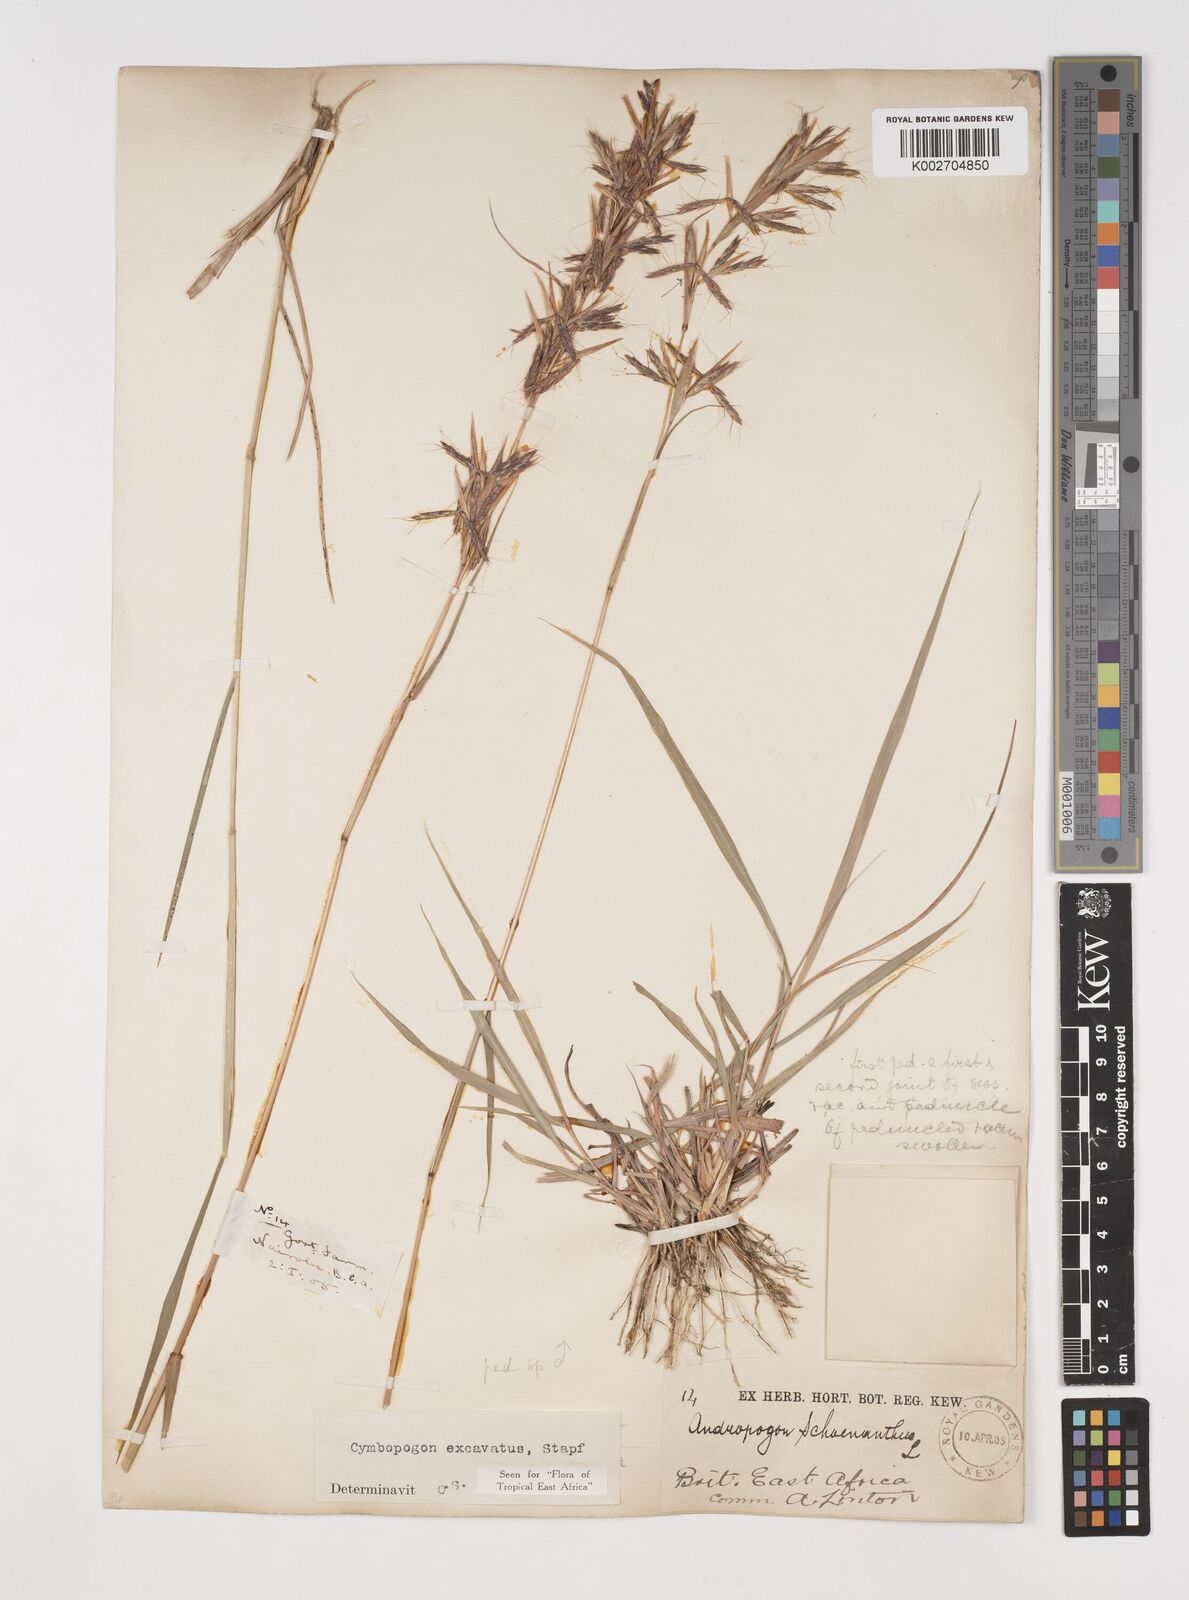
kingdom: Plantae
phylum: Tracheophyta
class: Liliopsida
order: Poales
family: Poaceae
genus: Cymbopogon
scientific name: Cymbopogon caesius
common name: Kachi grass
